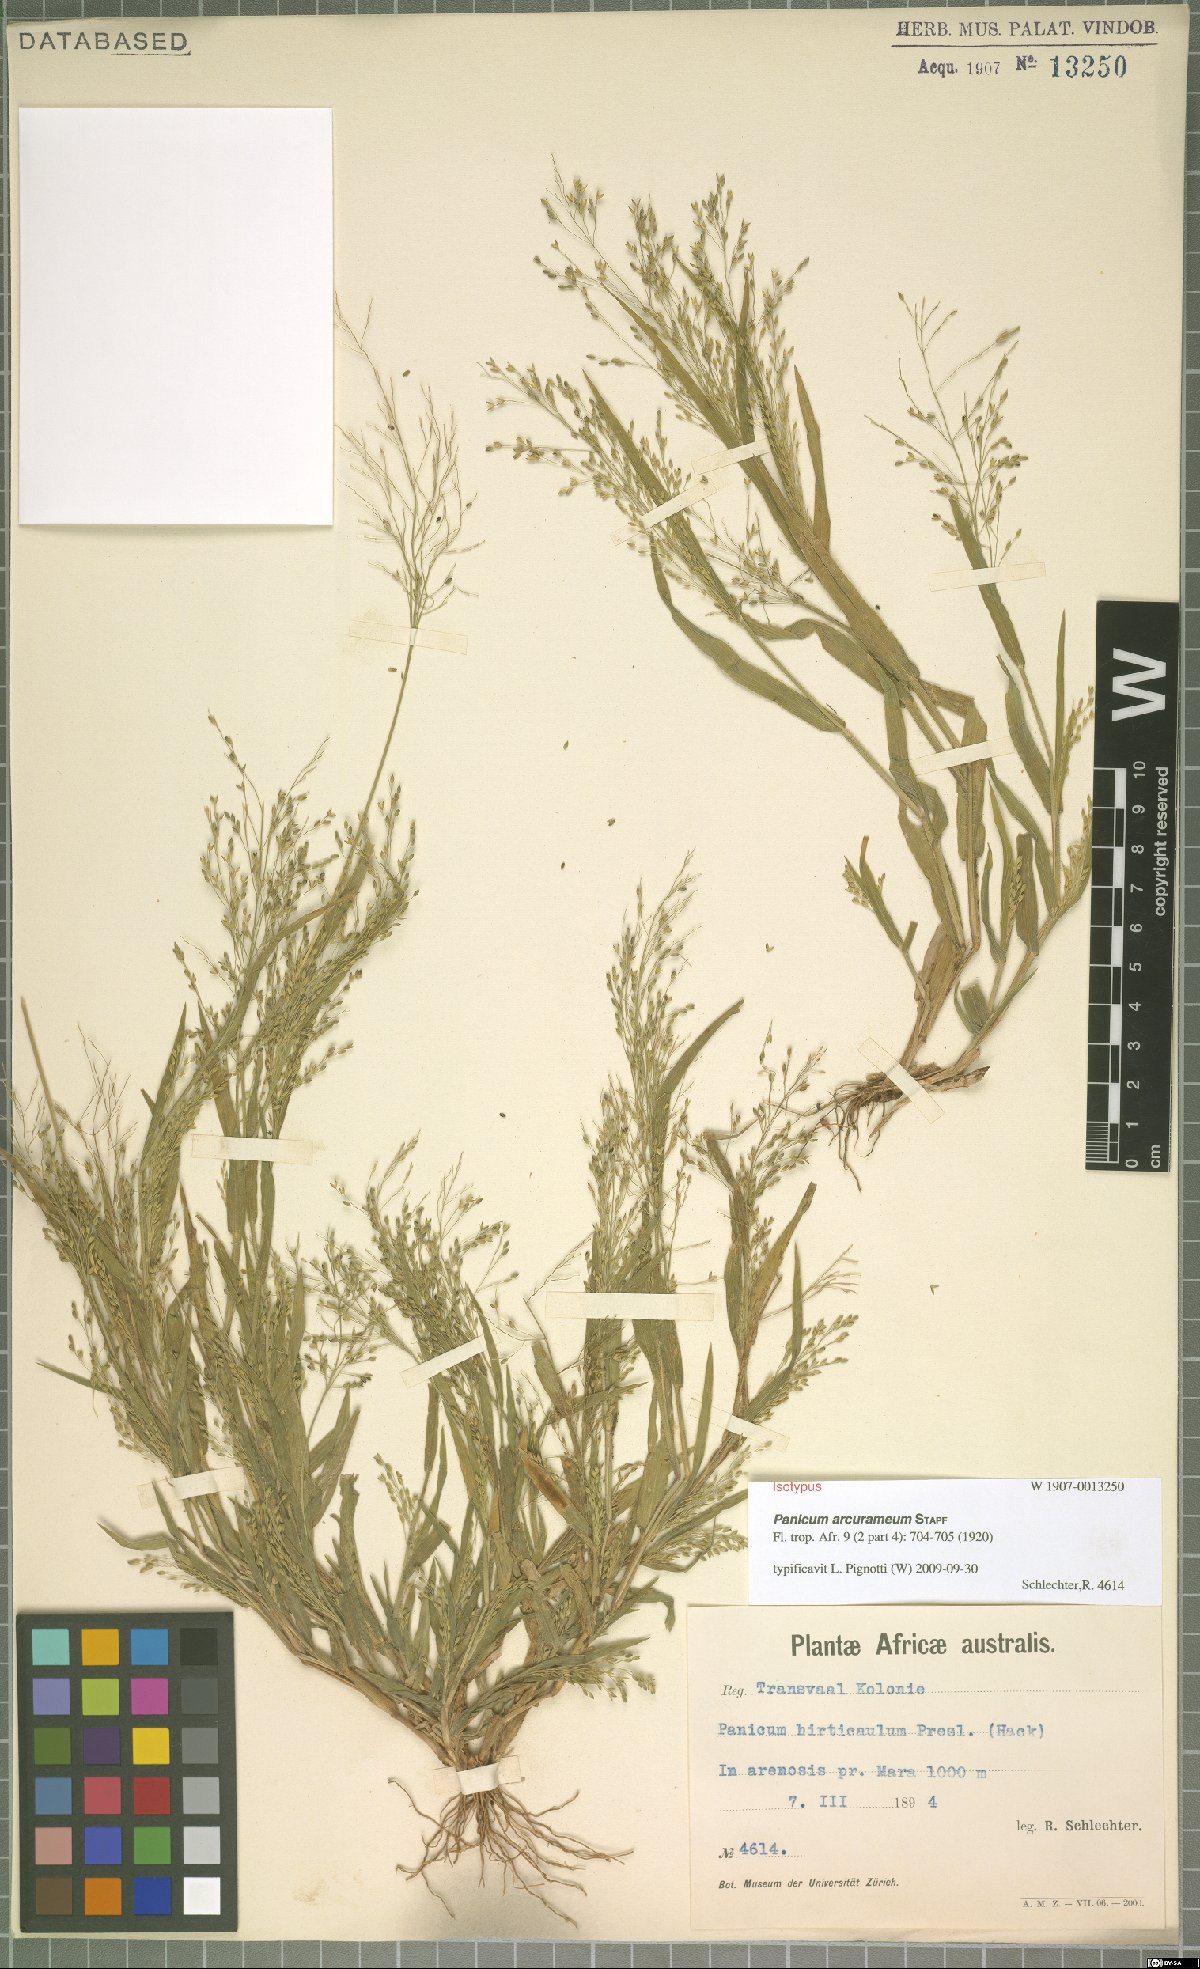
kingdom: Plantae
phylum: Tracheophyta
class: Liliopsida
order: Poales
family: Poaceae
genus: Panicum
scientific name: Panicum arcurameum
